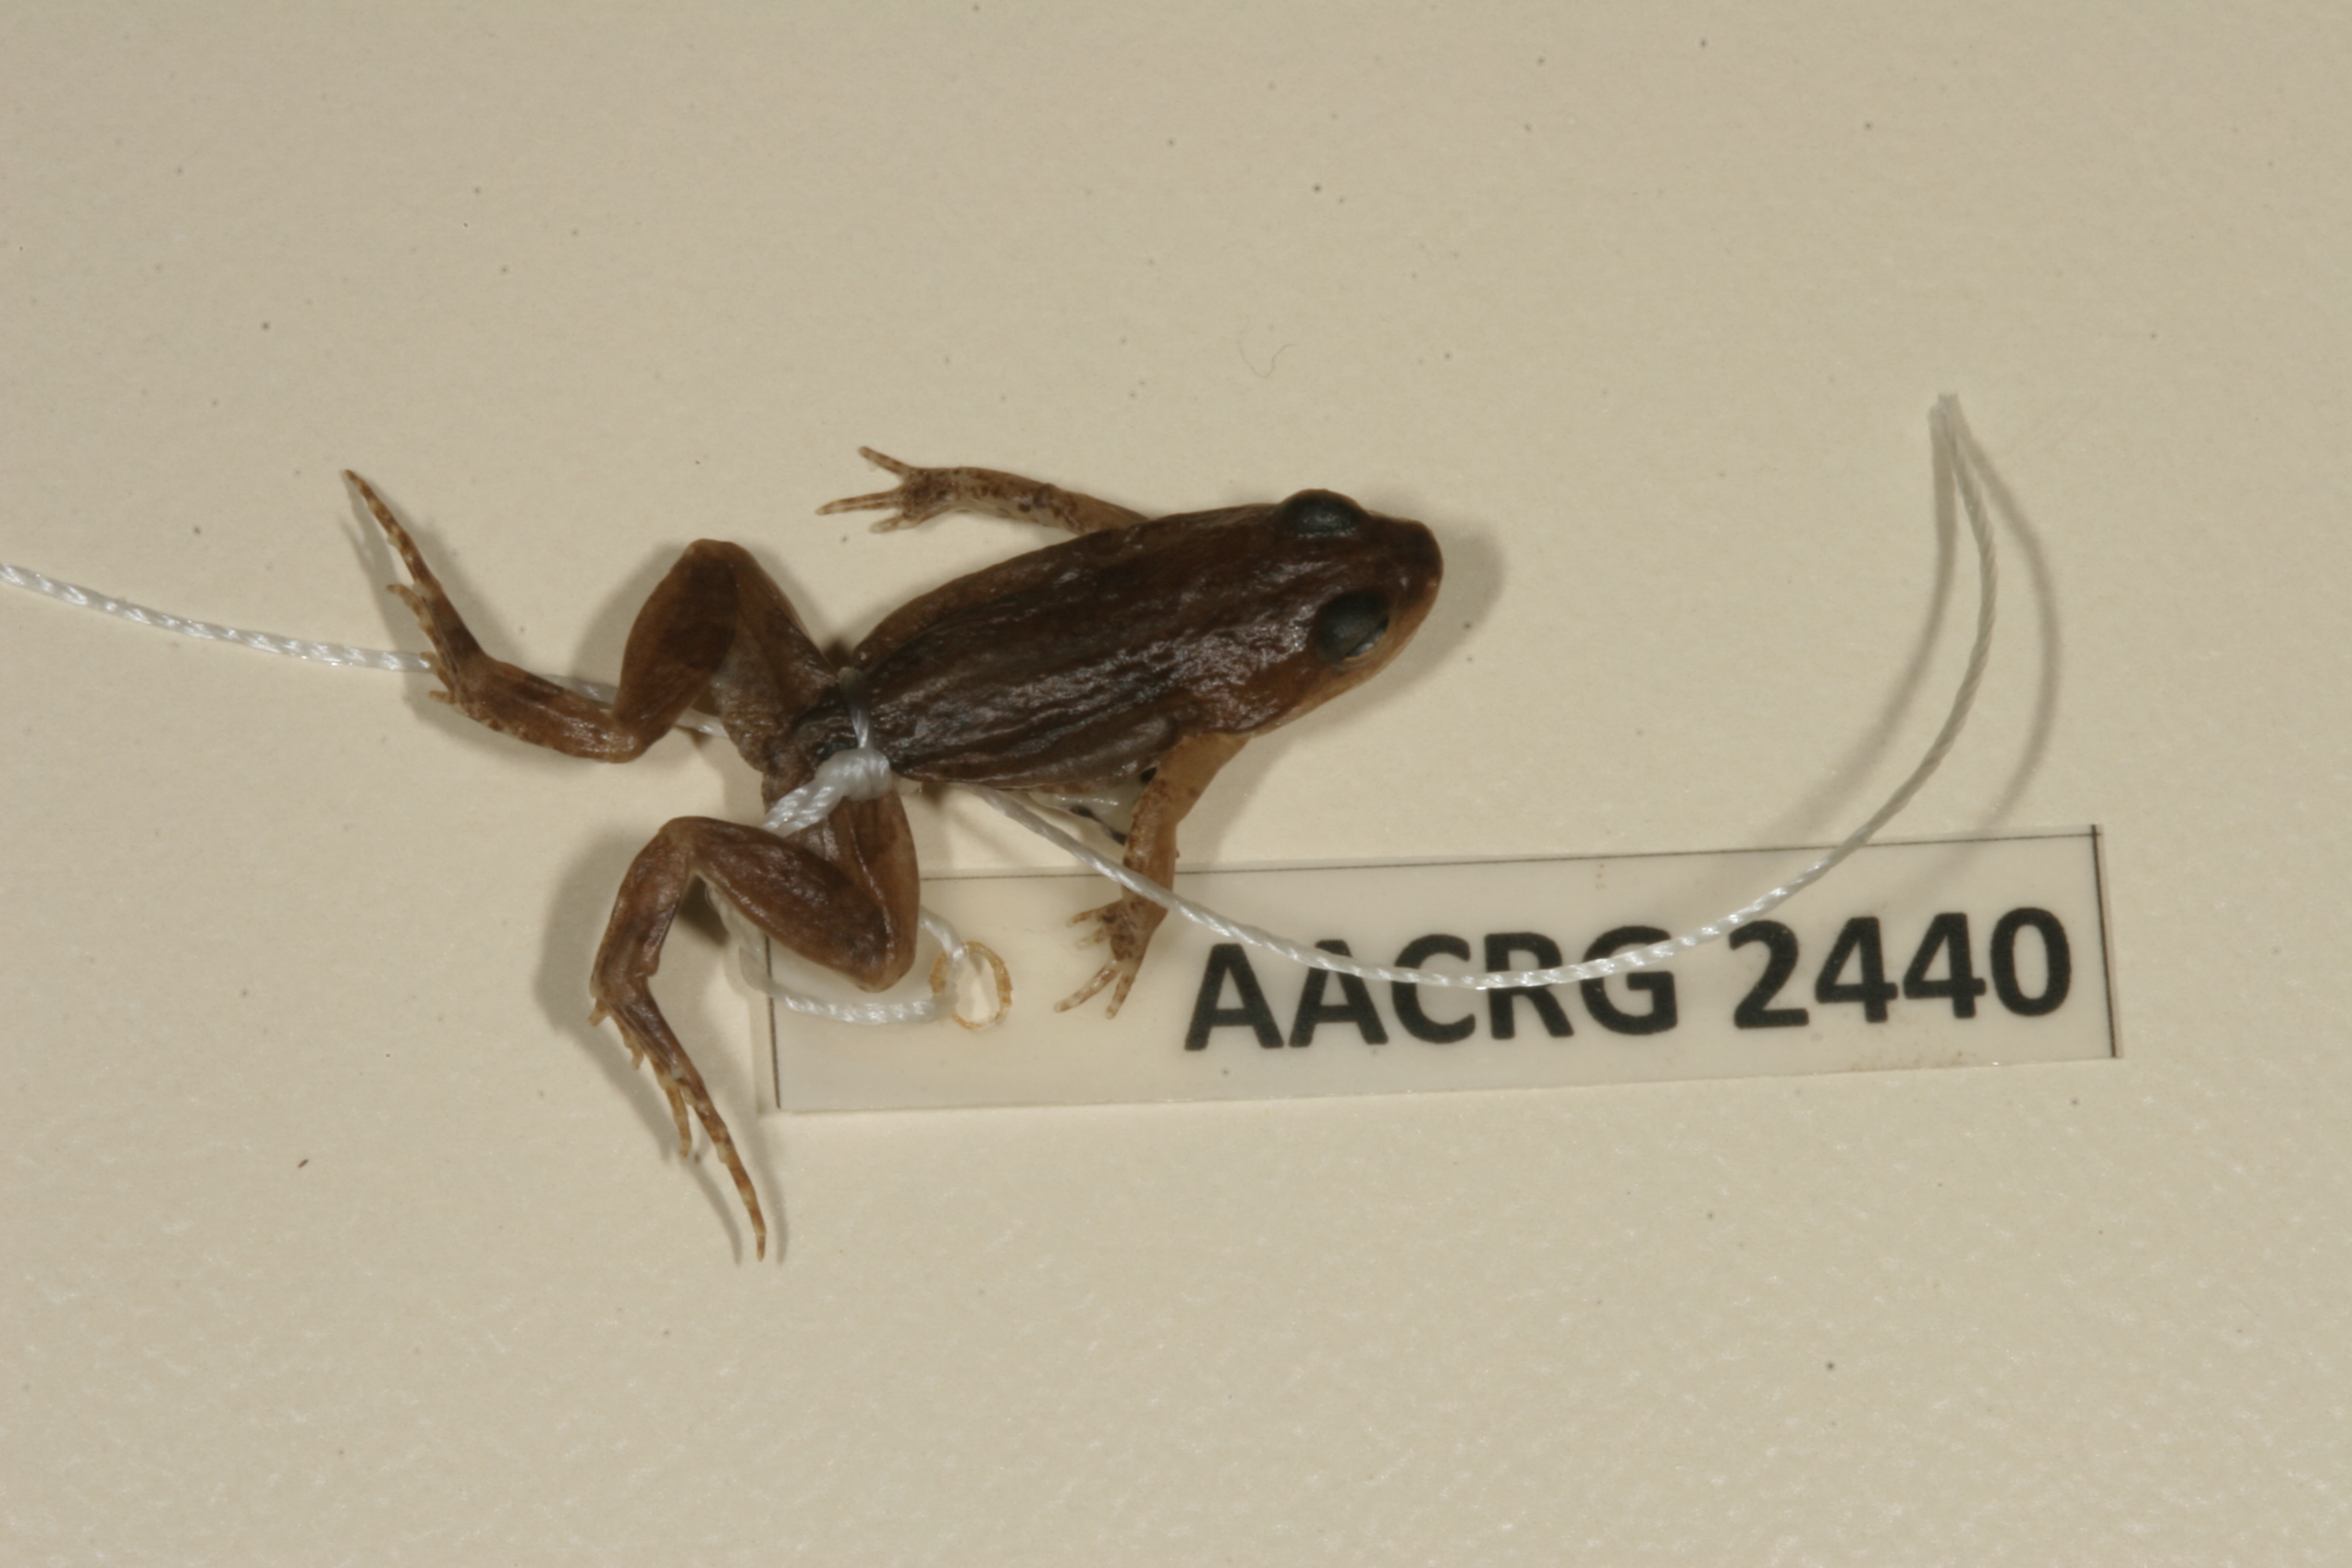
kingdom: Animalia
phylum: Chordata
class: Amphibia
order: Anura
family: Pyxicephalidae
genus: Cacosternum
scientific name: Cacosternum boettgeri
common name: Boettger's frog
